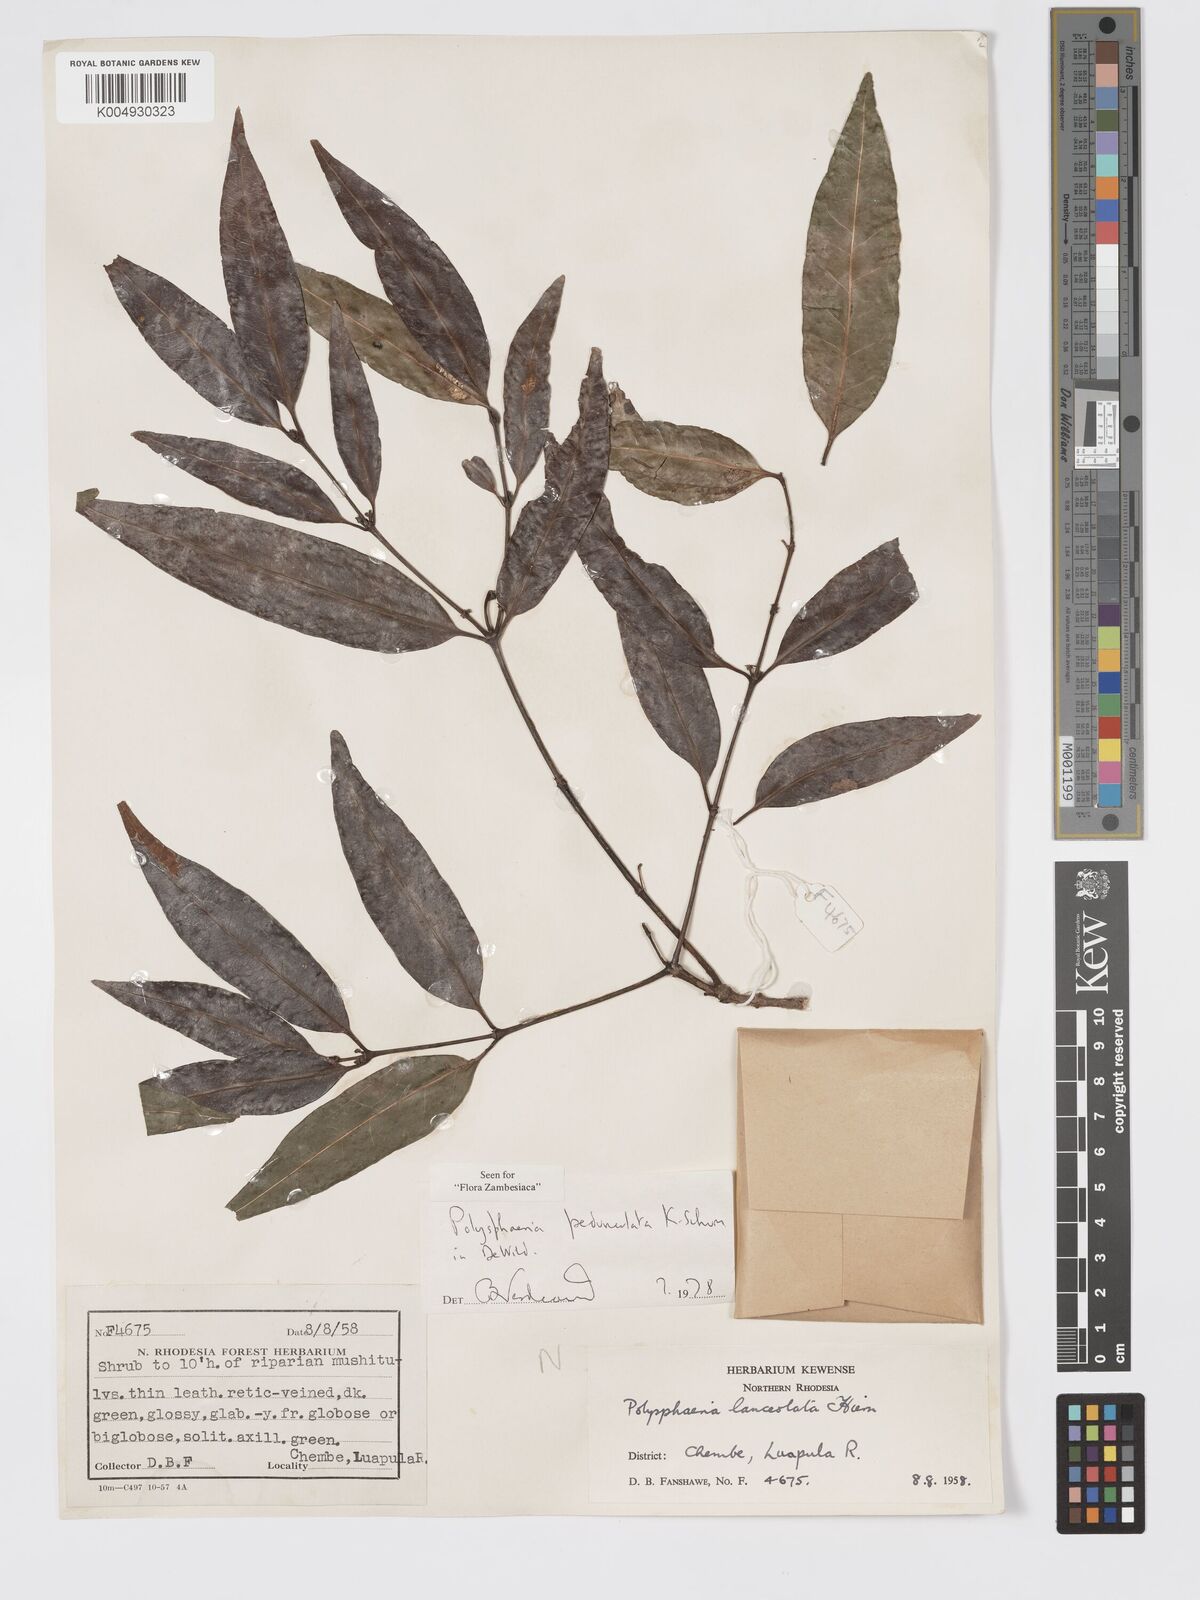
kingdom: Plantae
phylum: Tracheophyta
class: Magnoliopsida
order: Gentianales
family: Rubiaceae
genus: Polysphaeria
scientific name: Polysphaeria pedunculata
